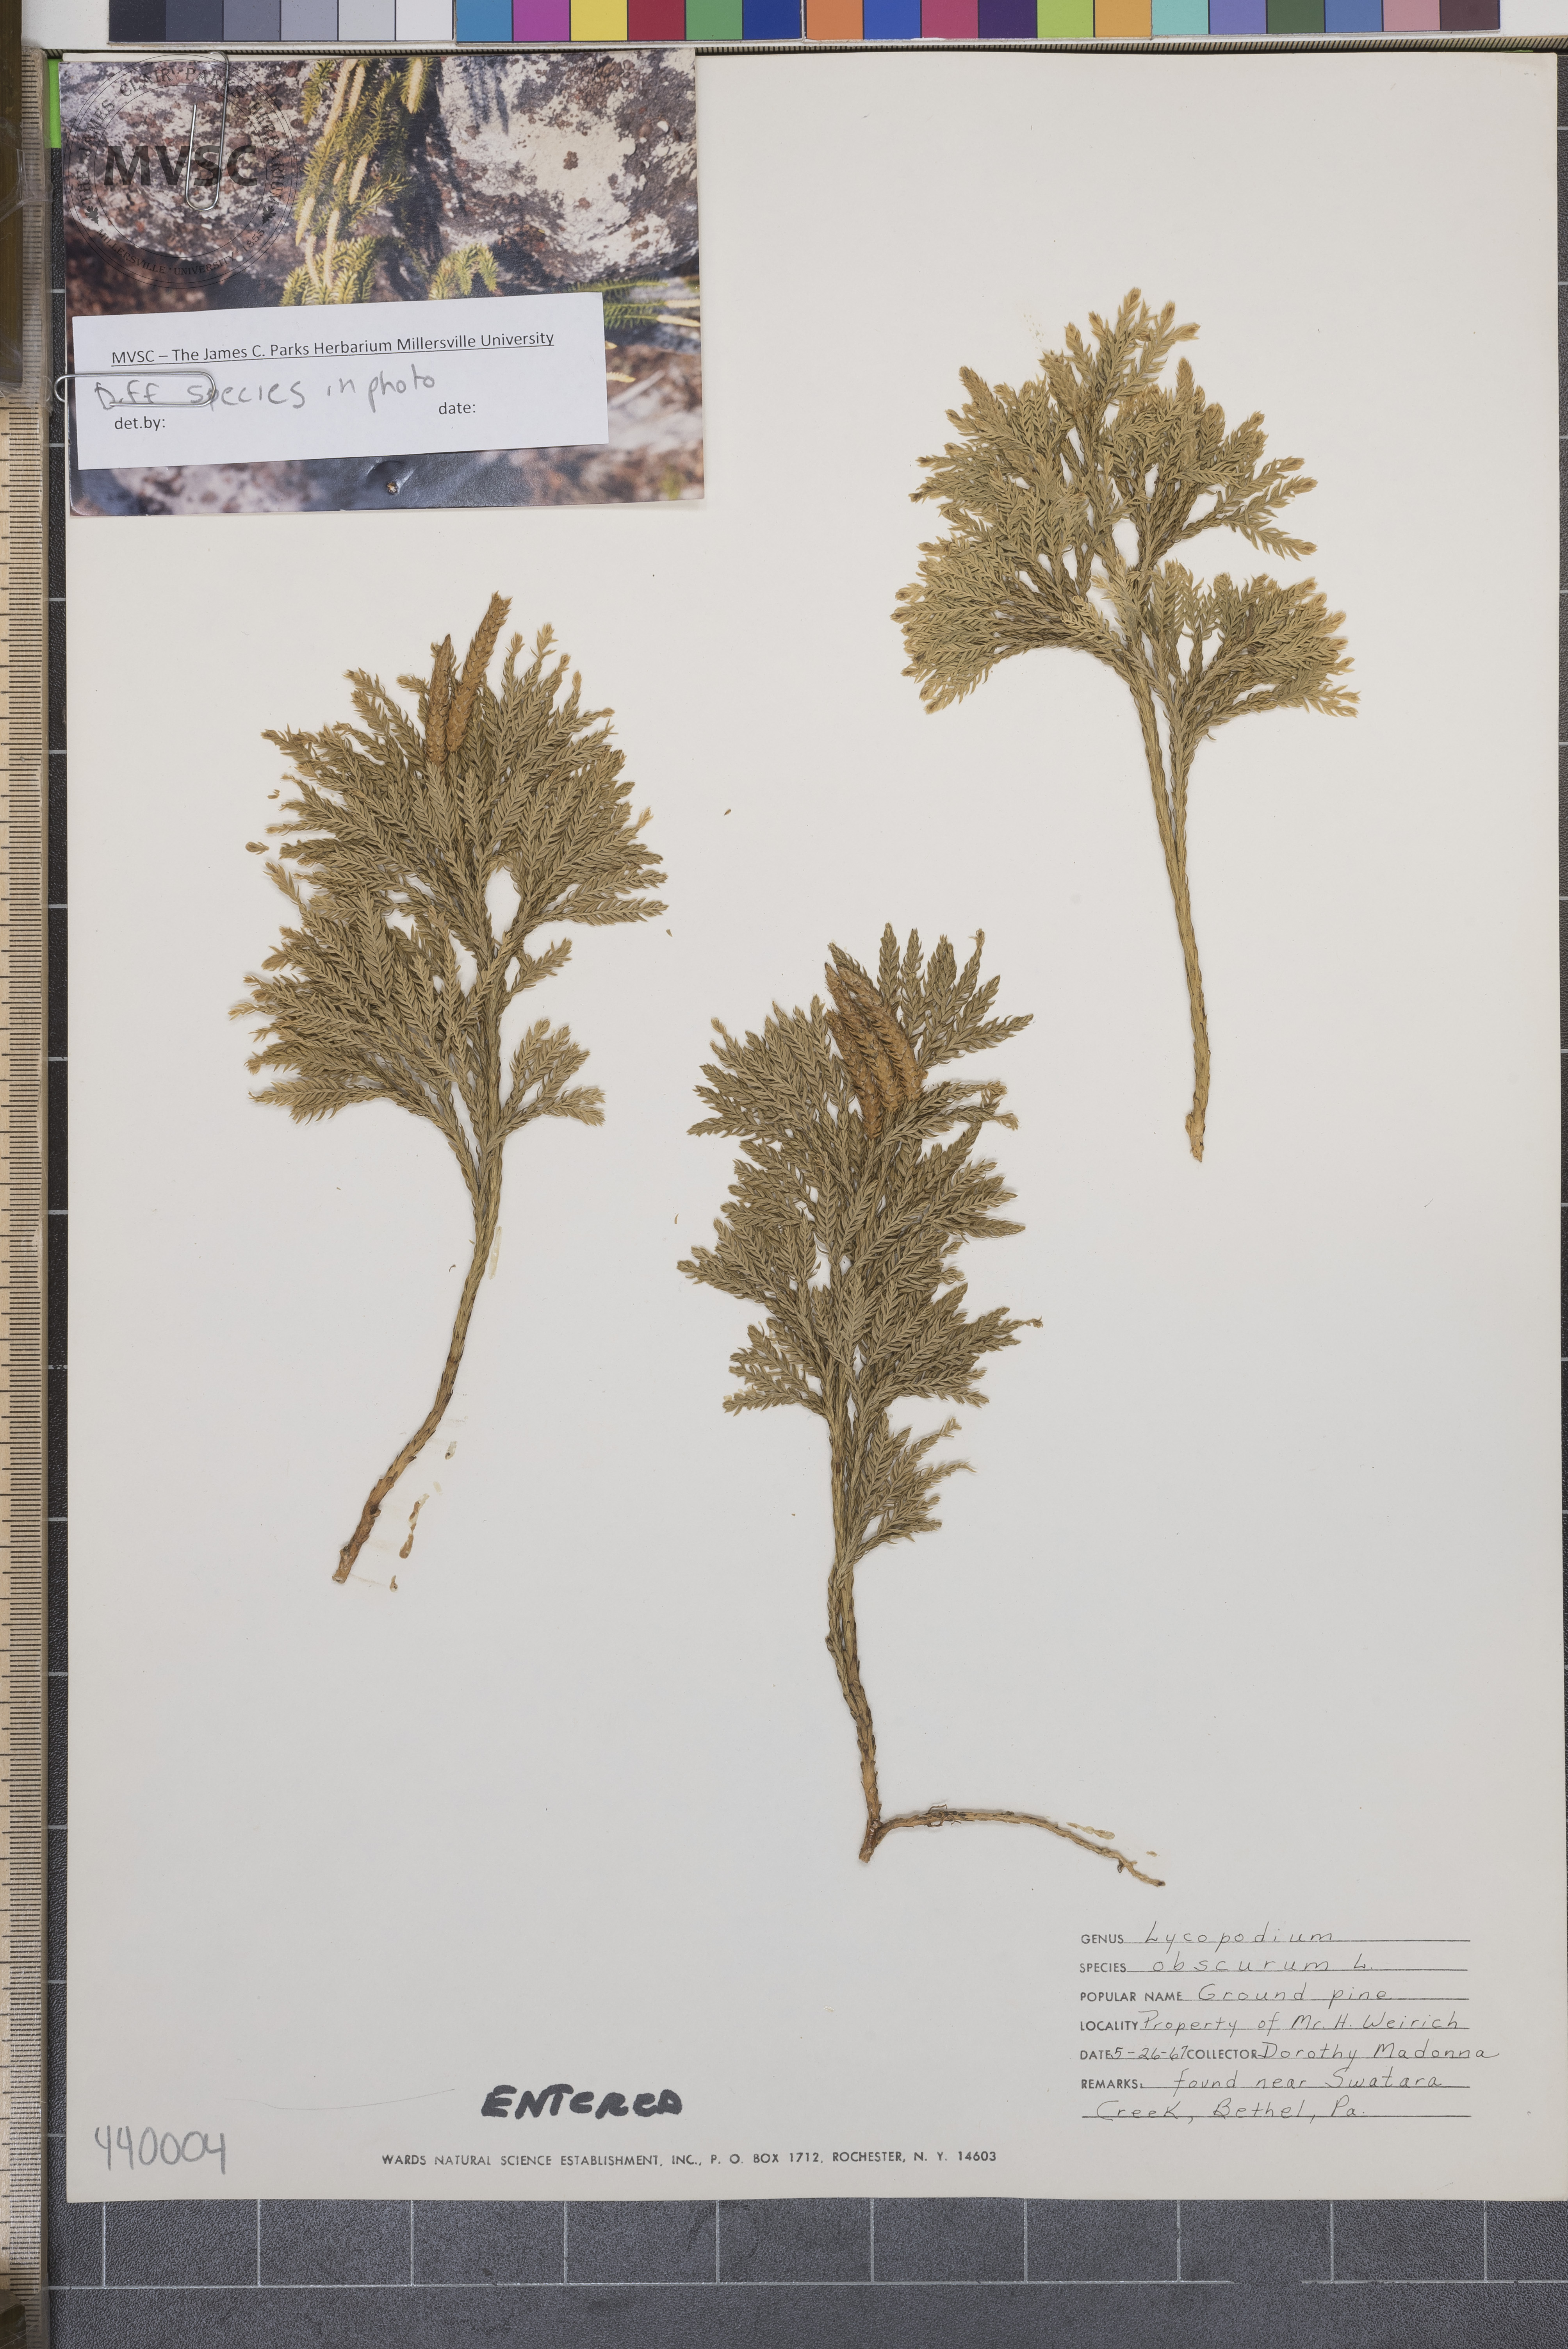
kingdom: Plantae
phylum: Tracheophyta
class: Lycopodiopsida
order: Lycopodiales
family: Lycopodiaceae
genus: Dendrolycopodium
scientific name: Dendrolycopodium obscurum
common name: Common ground-pine
